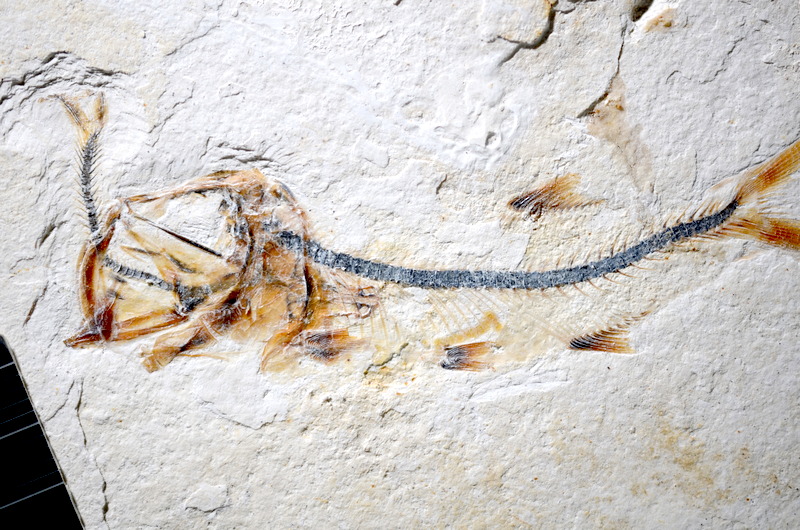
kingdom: Animalia
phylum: Chordata
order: Salmoniformes
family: Orthogonikleithridae
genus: Orthogonikleithrus
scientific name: Orthogonikleithrus hoelli
